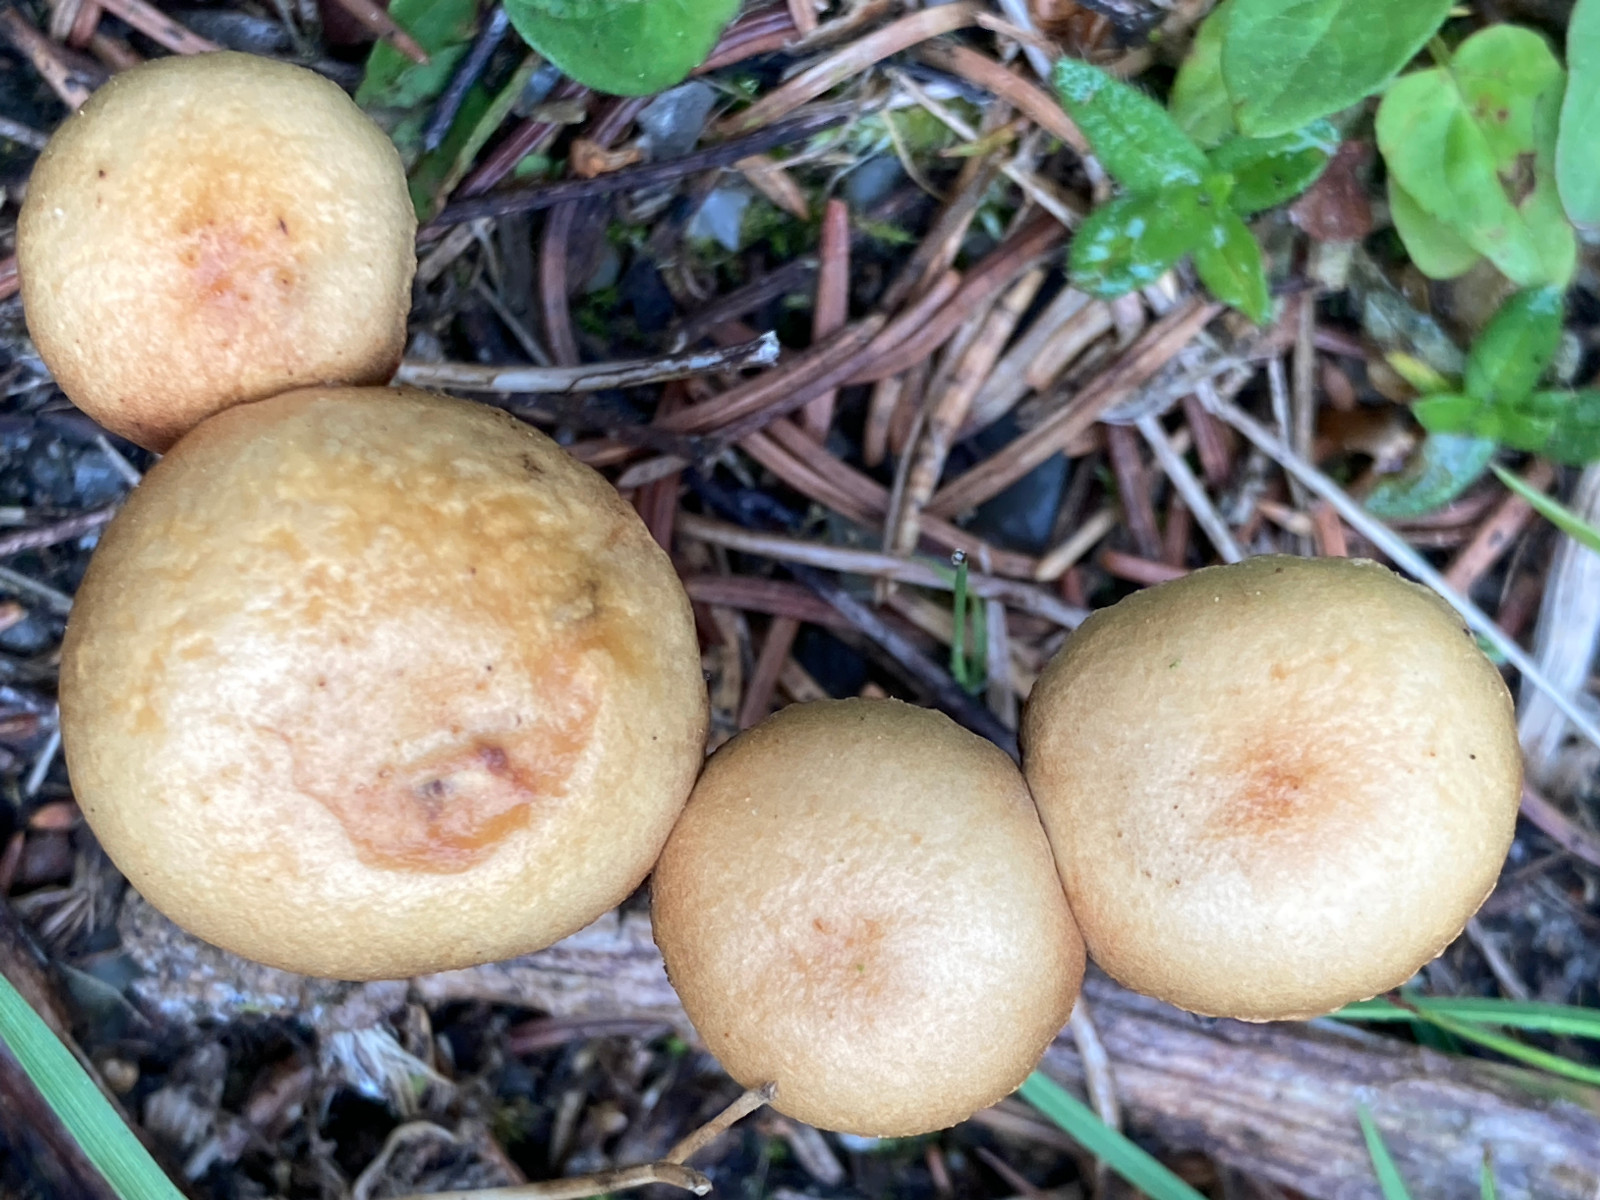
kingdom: Fungi
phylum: Basidiomycota
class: Agaricomycetes
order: Agaricales
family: Strophariaceae
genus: Agrocybe
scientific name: Agrocybe pediades
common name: almindelig agerhat
